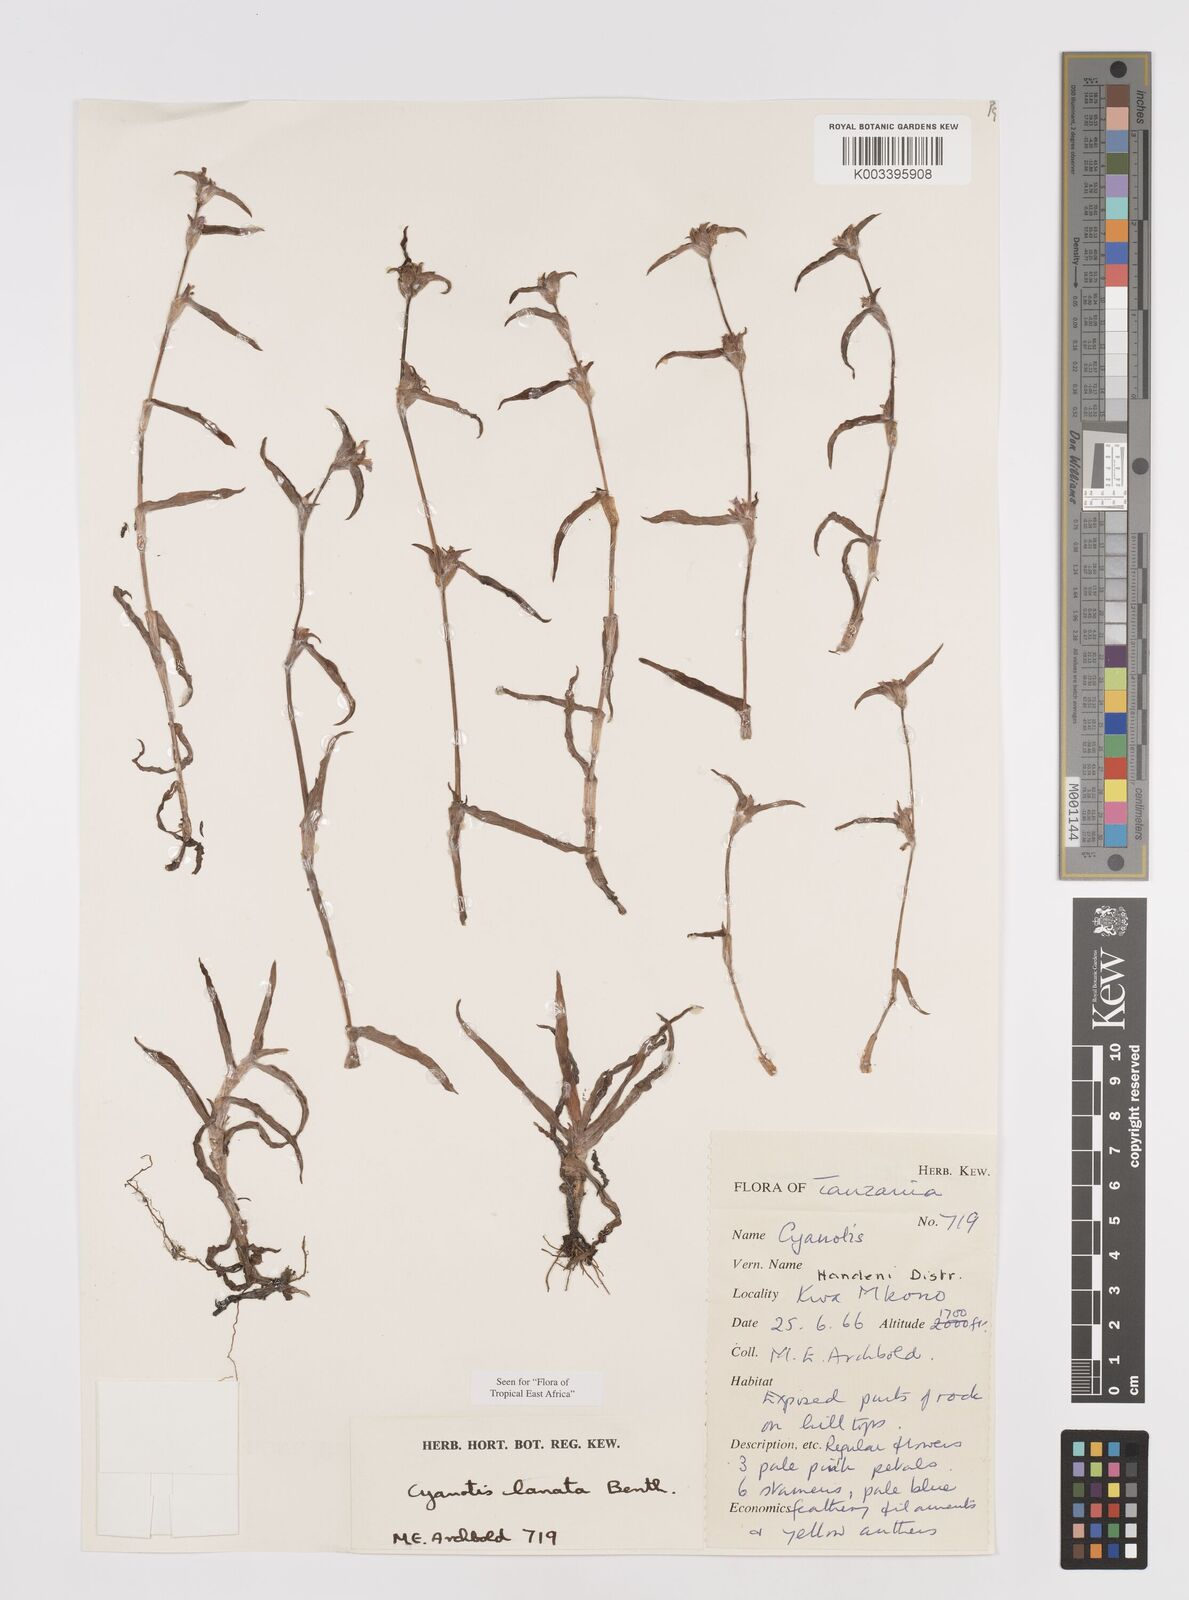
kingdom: Plantae
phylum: Tracheophyta
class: Liliopsida
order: Commelinales
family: Commelinaceae
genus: Cyanotis
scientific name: Cyanotis lanata
